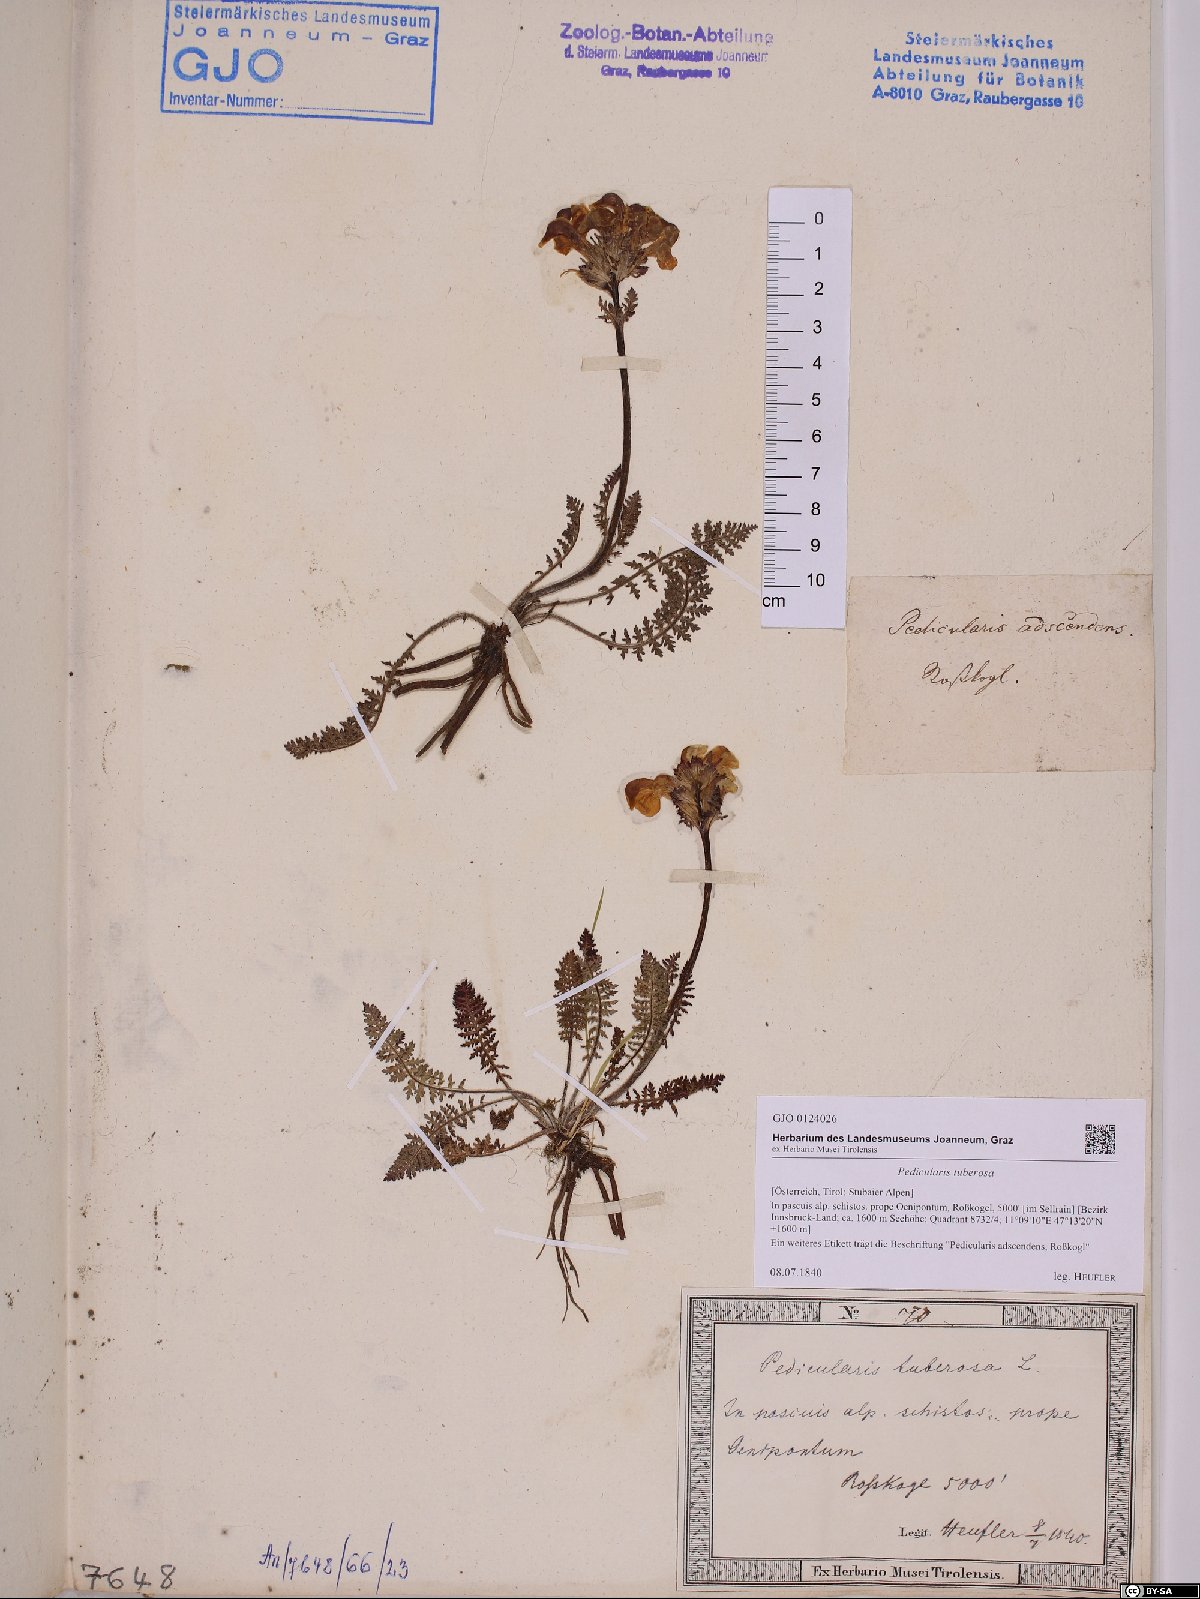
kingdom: Plantae
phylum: Tracheophyta
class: Magnoliopsida
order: Lamiales
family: Orobanchaceae
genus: Pedicularis
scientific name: Pedicularis tuberosa
